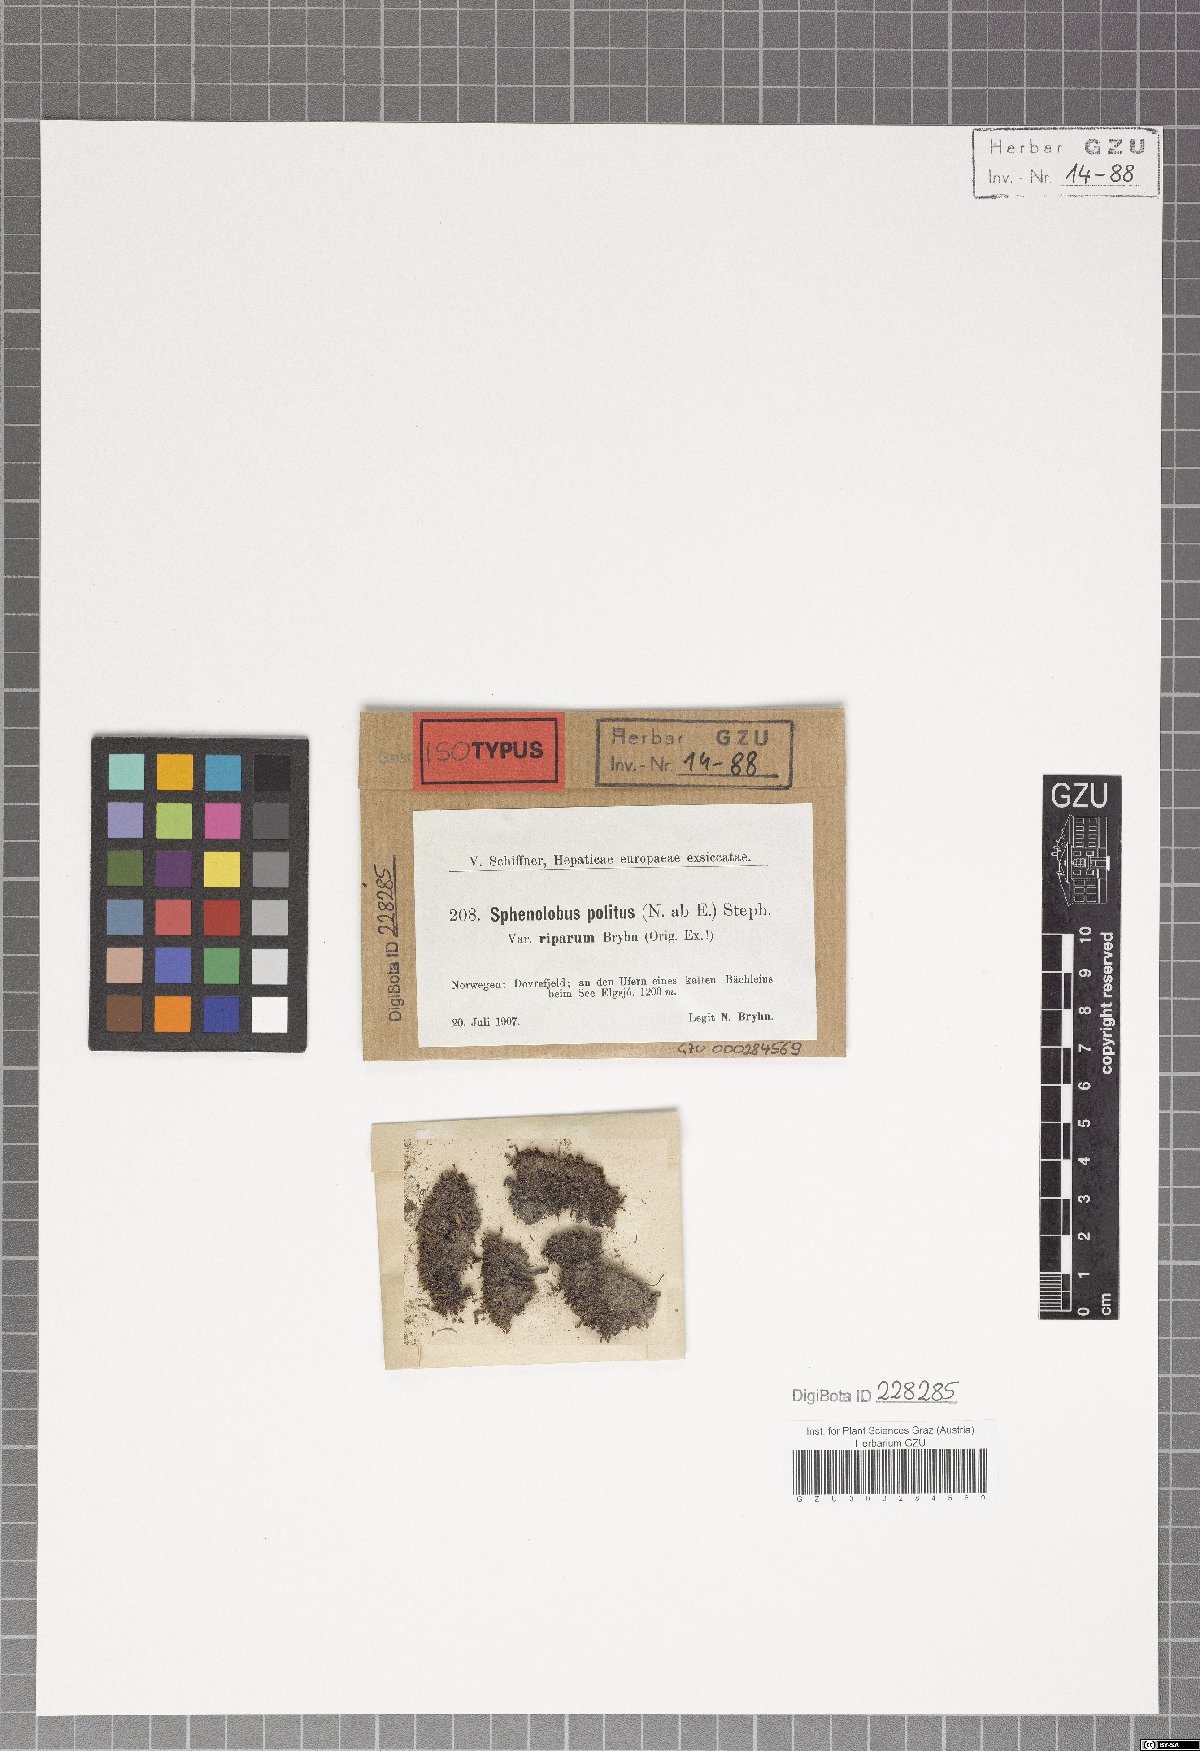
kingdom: Plantae
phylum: Marchantiophyta
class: Jungermanniopsida
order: Jungermanniales
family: Scapaniaceae
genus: Saccobasis
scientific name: Saccobasis polita
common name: Flush notchwort
